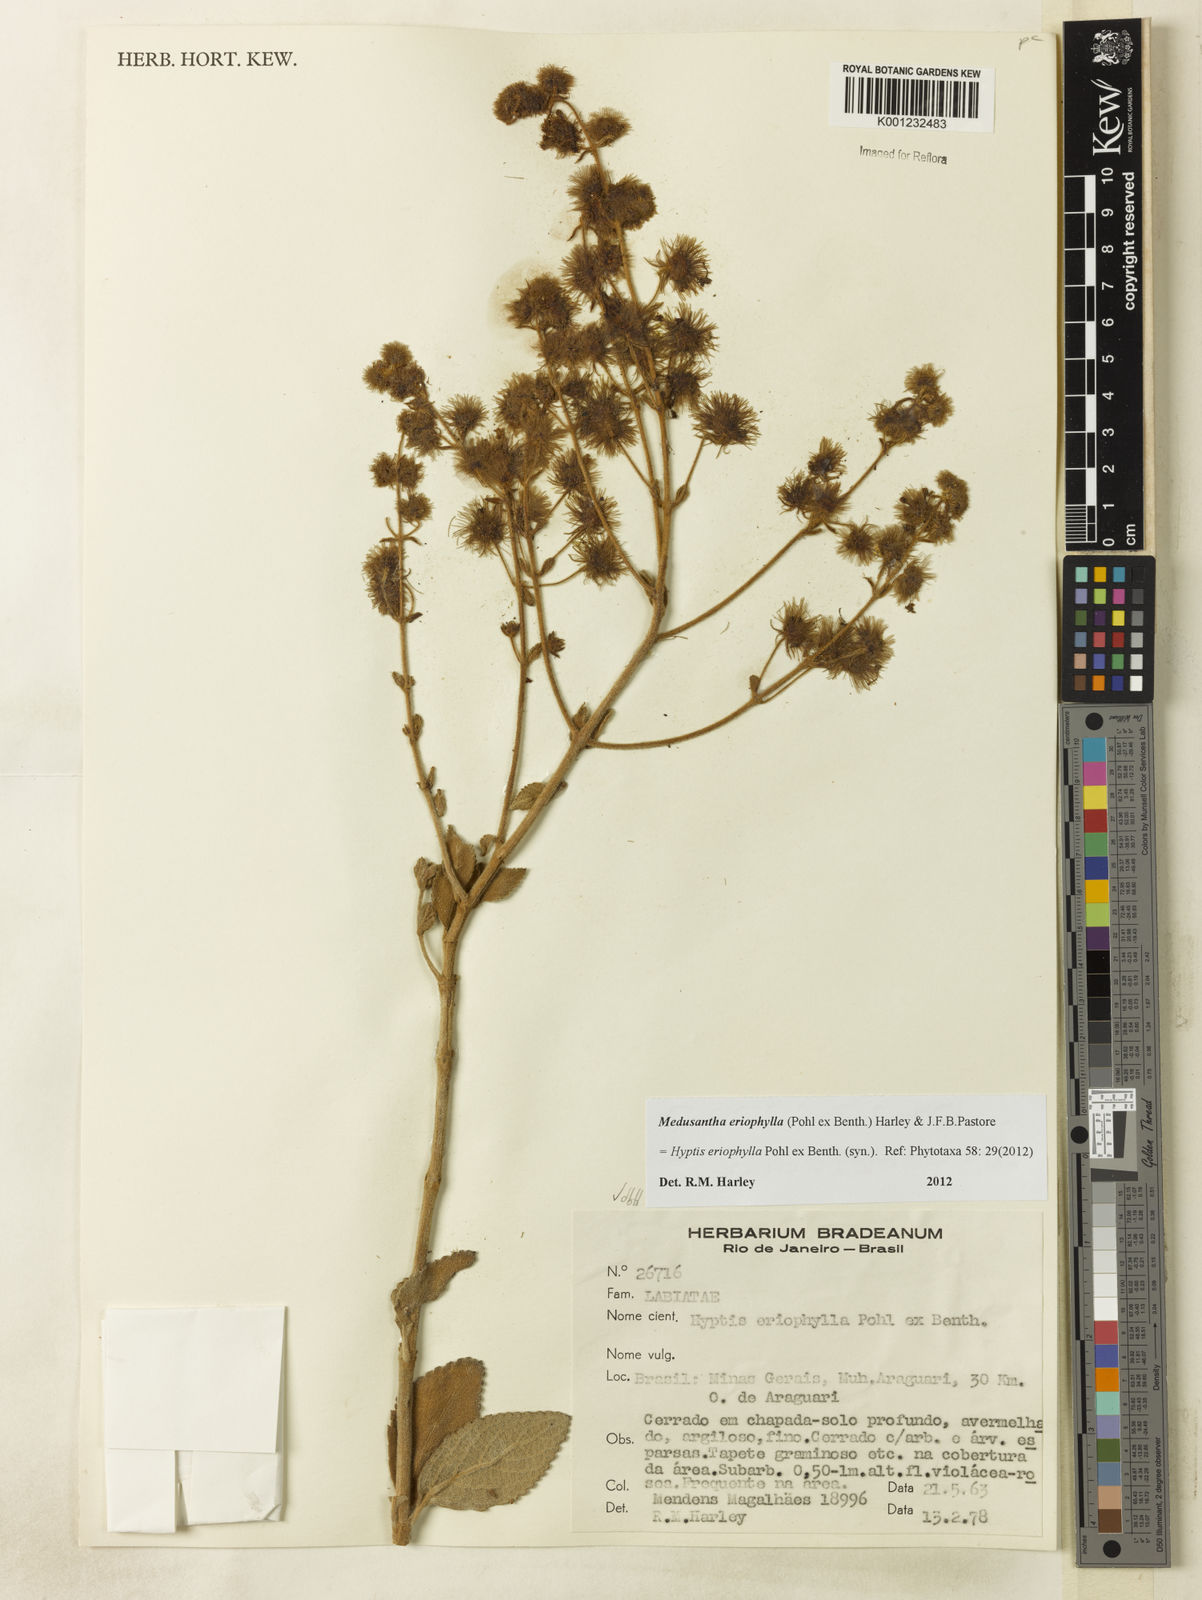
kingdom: Plantae
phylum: Tracheophyta
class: Magnoliopsida
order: Lamiales
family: Lamiaceae
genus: Medusantha
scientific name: Medusantha eriophylla
